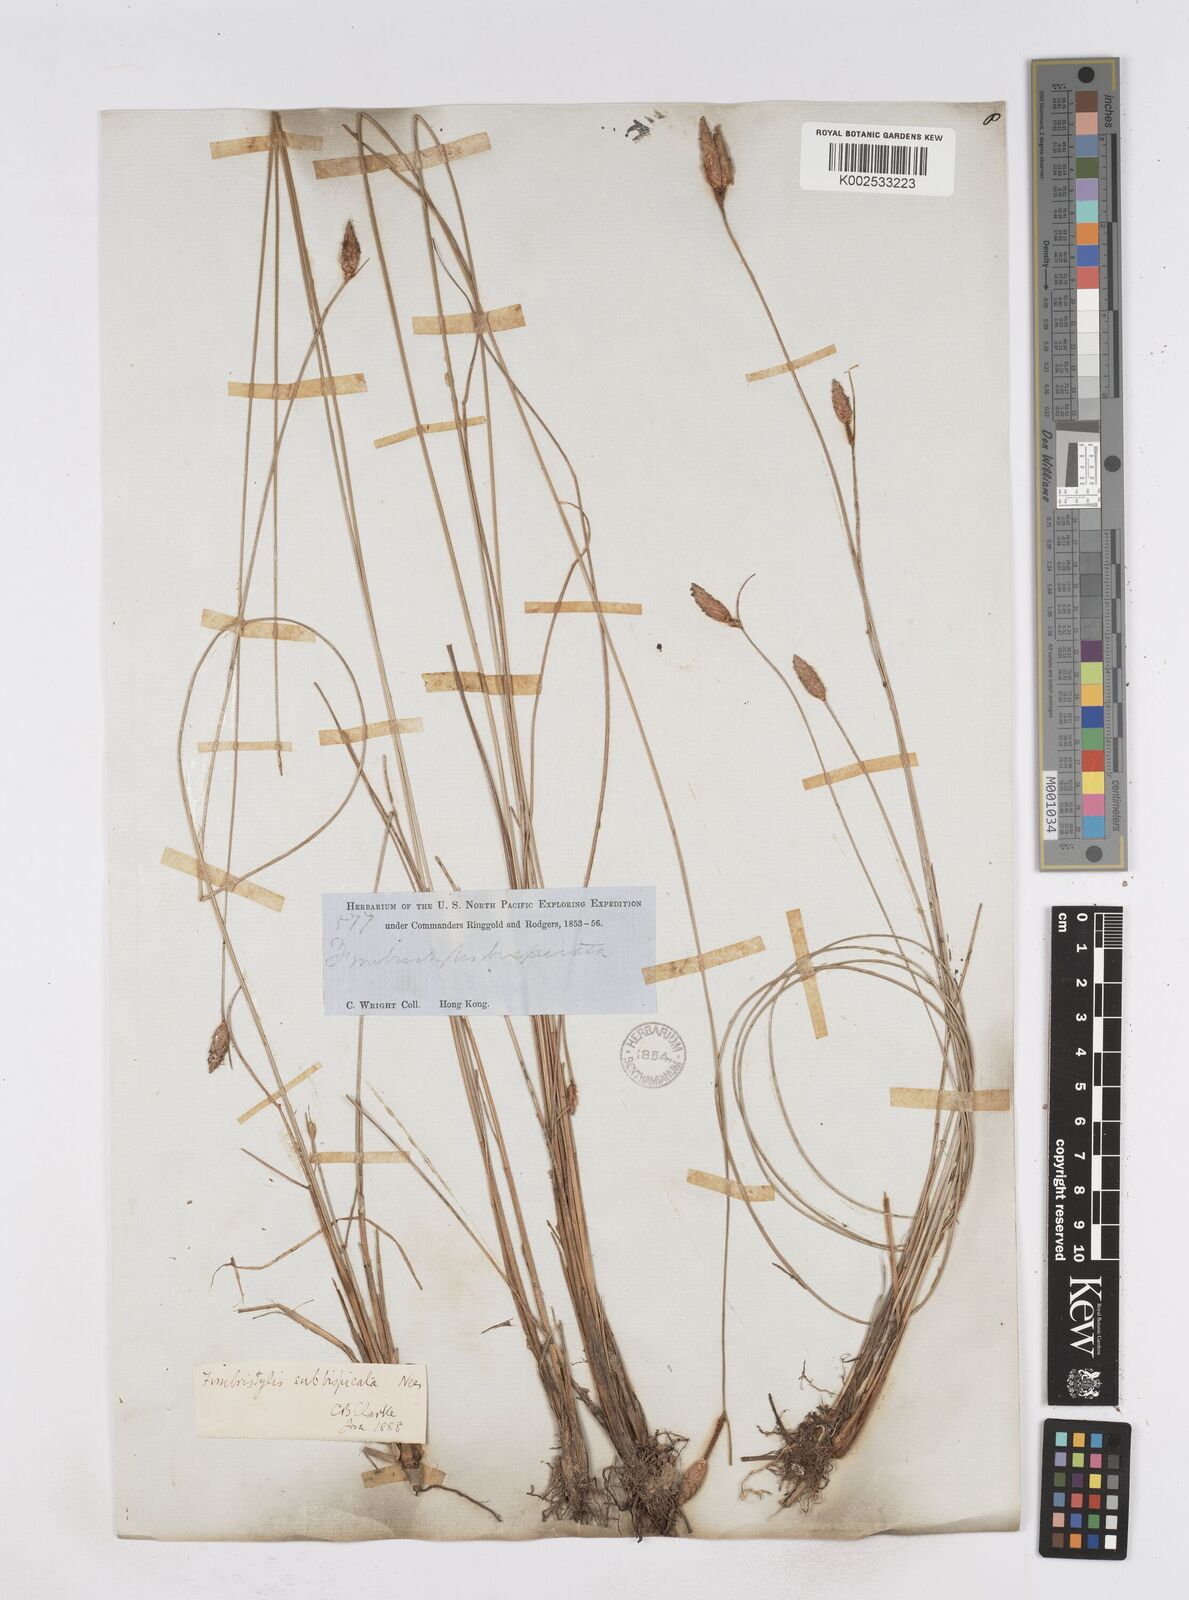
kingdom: Plantae
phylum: Tracheophyta
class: Liliopsida
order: Poales
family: Cyperaceae
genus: Fimbristylis
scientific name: Fimbristylis tristachya
